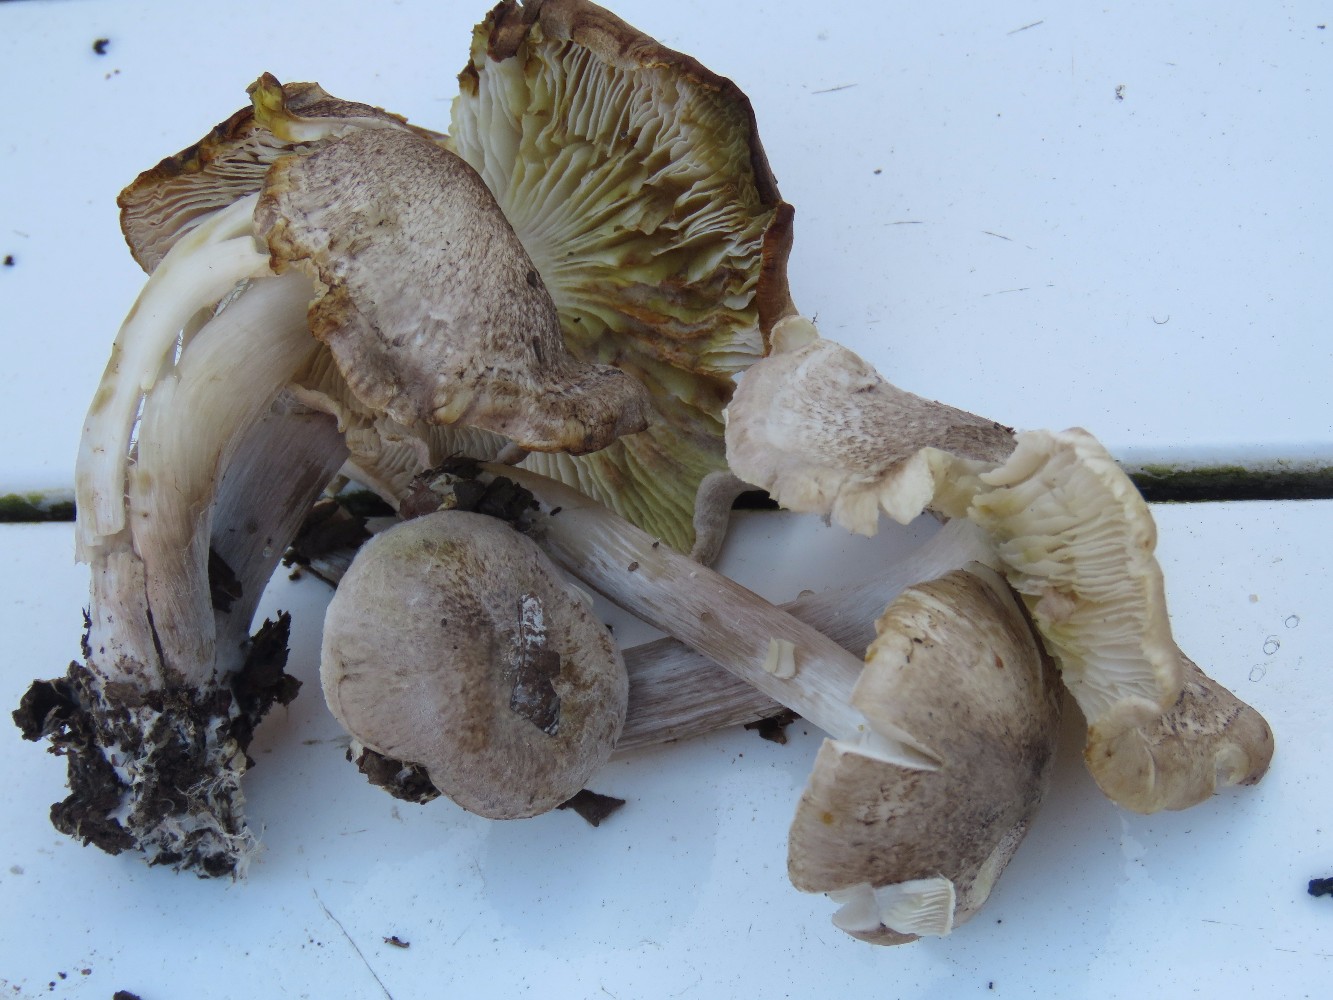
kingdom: Fungi
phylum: Basidiomycota
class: Agaricomycetes
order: Agaricales
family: Tricholomataceae
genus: Tricholoma
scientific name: Tricholoma scalpturatum
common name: gulplettet ridderhat
